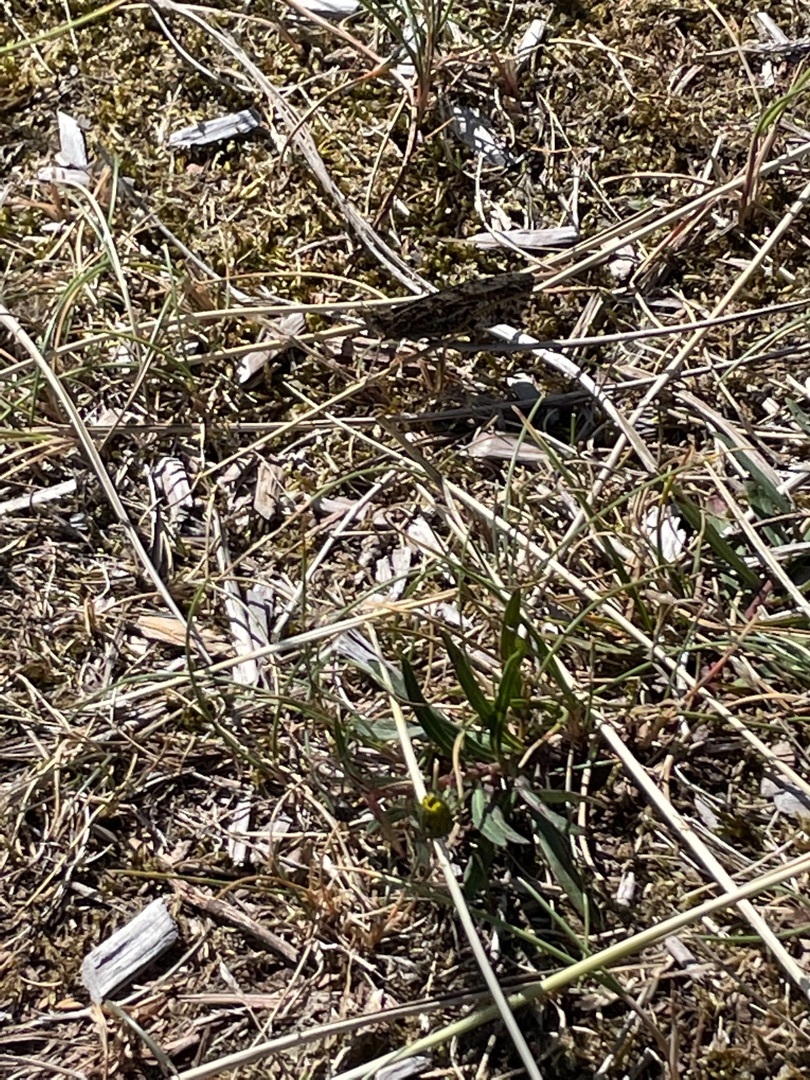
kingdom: Animalia
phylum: Arthropoda
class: Insecta
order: Lepidoptera
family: Nymphalidae
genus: Hipparchia
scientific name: Hipparchia semele
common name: Sandrandøje
